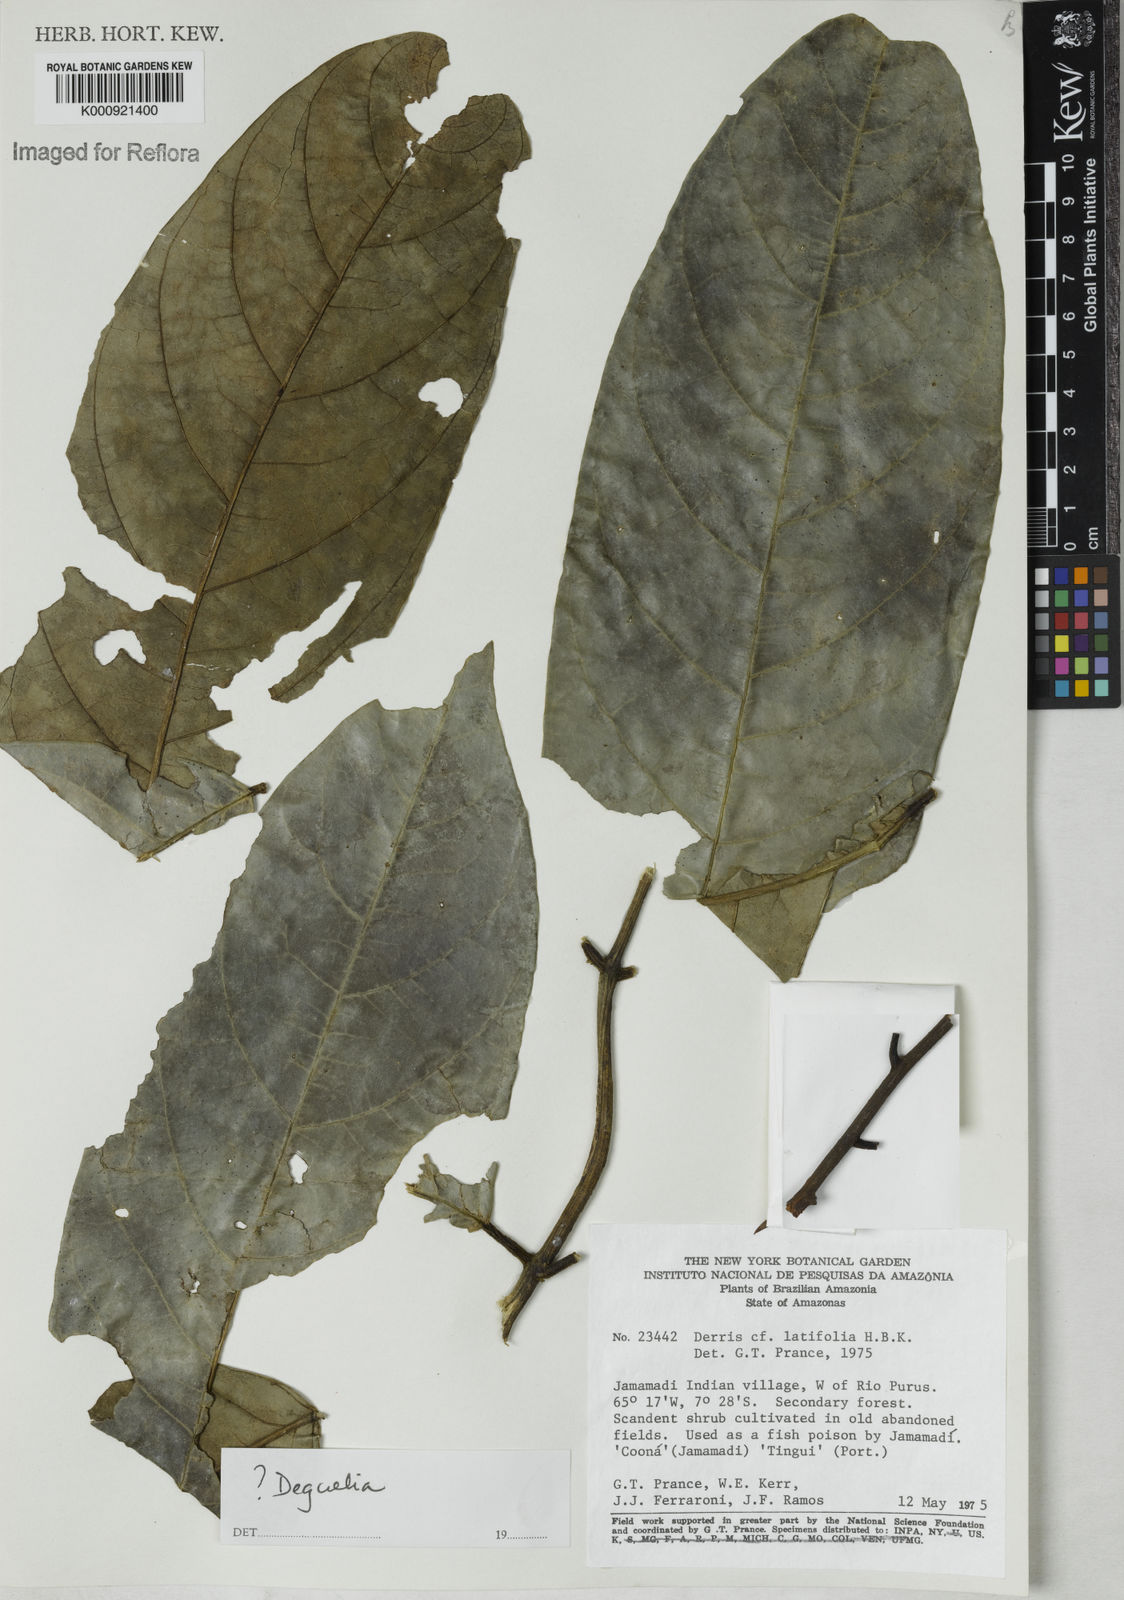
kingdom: Plantae
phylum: Tracheophyta
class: Magnoliopsida
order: Fabales
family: Fabaceae
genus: Deguelia
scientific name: Deguelia
